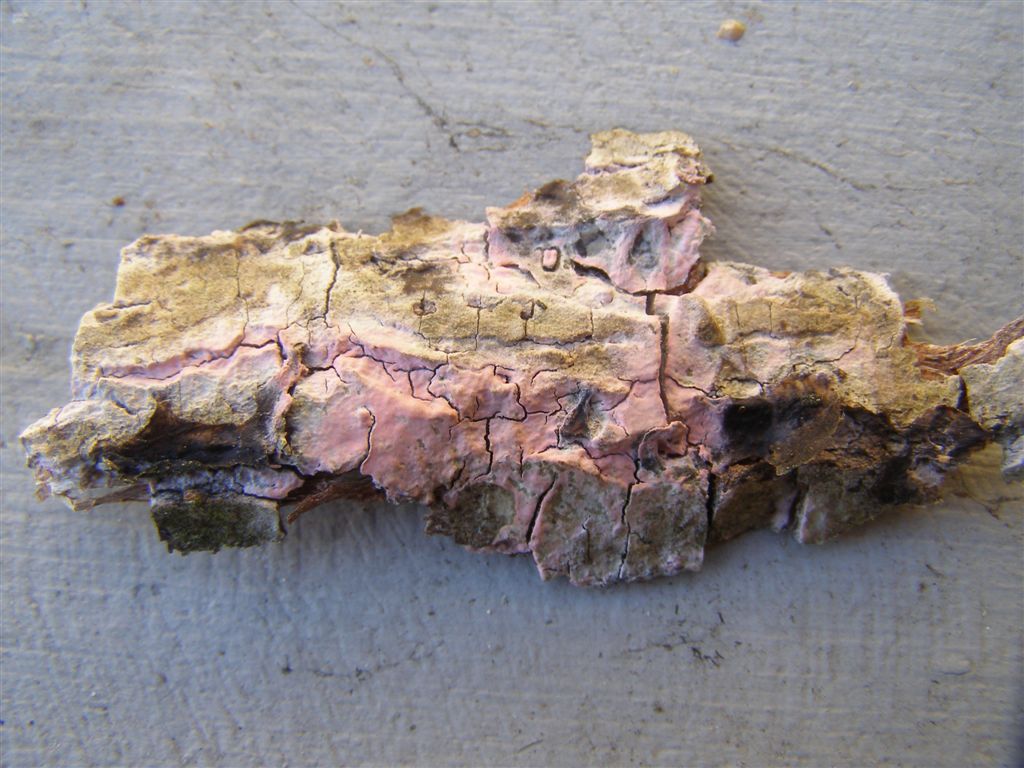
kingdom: Fungi
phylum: Basidiomycota
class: Agaricomycetes
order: Cantharellales
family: Tulasnellaceae
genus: Tulasnella
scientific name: Tulasnella violea
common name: violet ballonhinde
